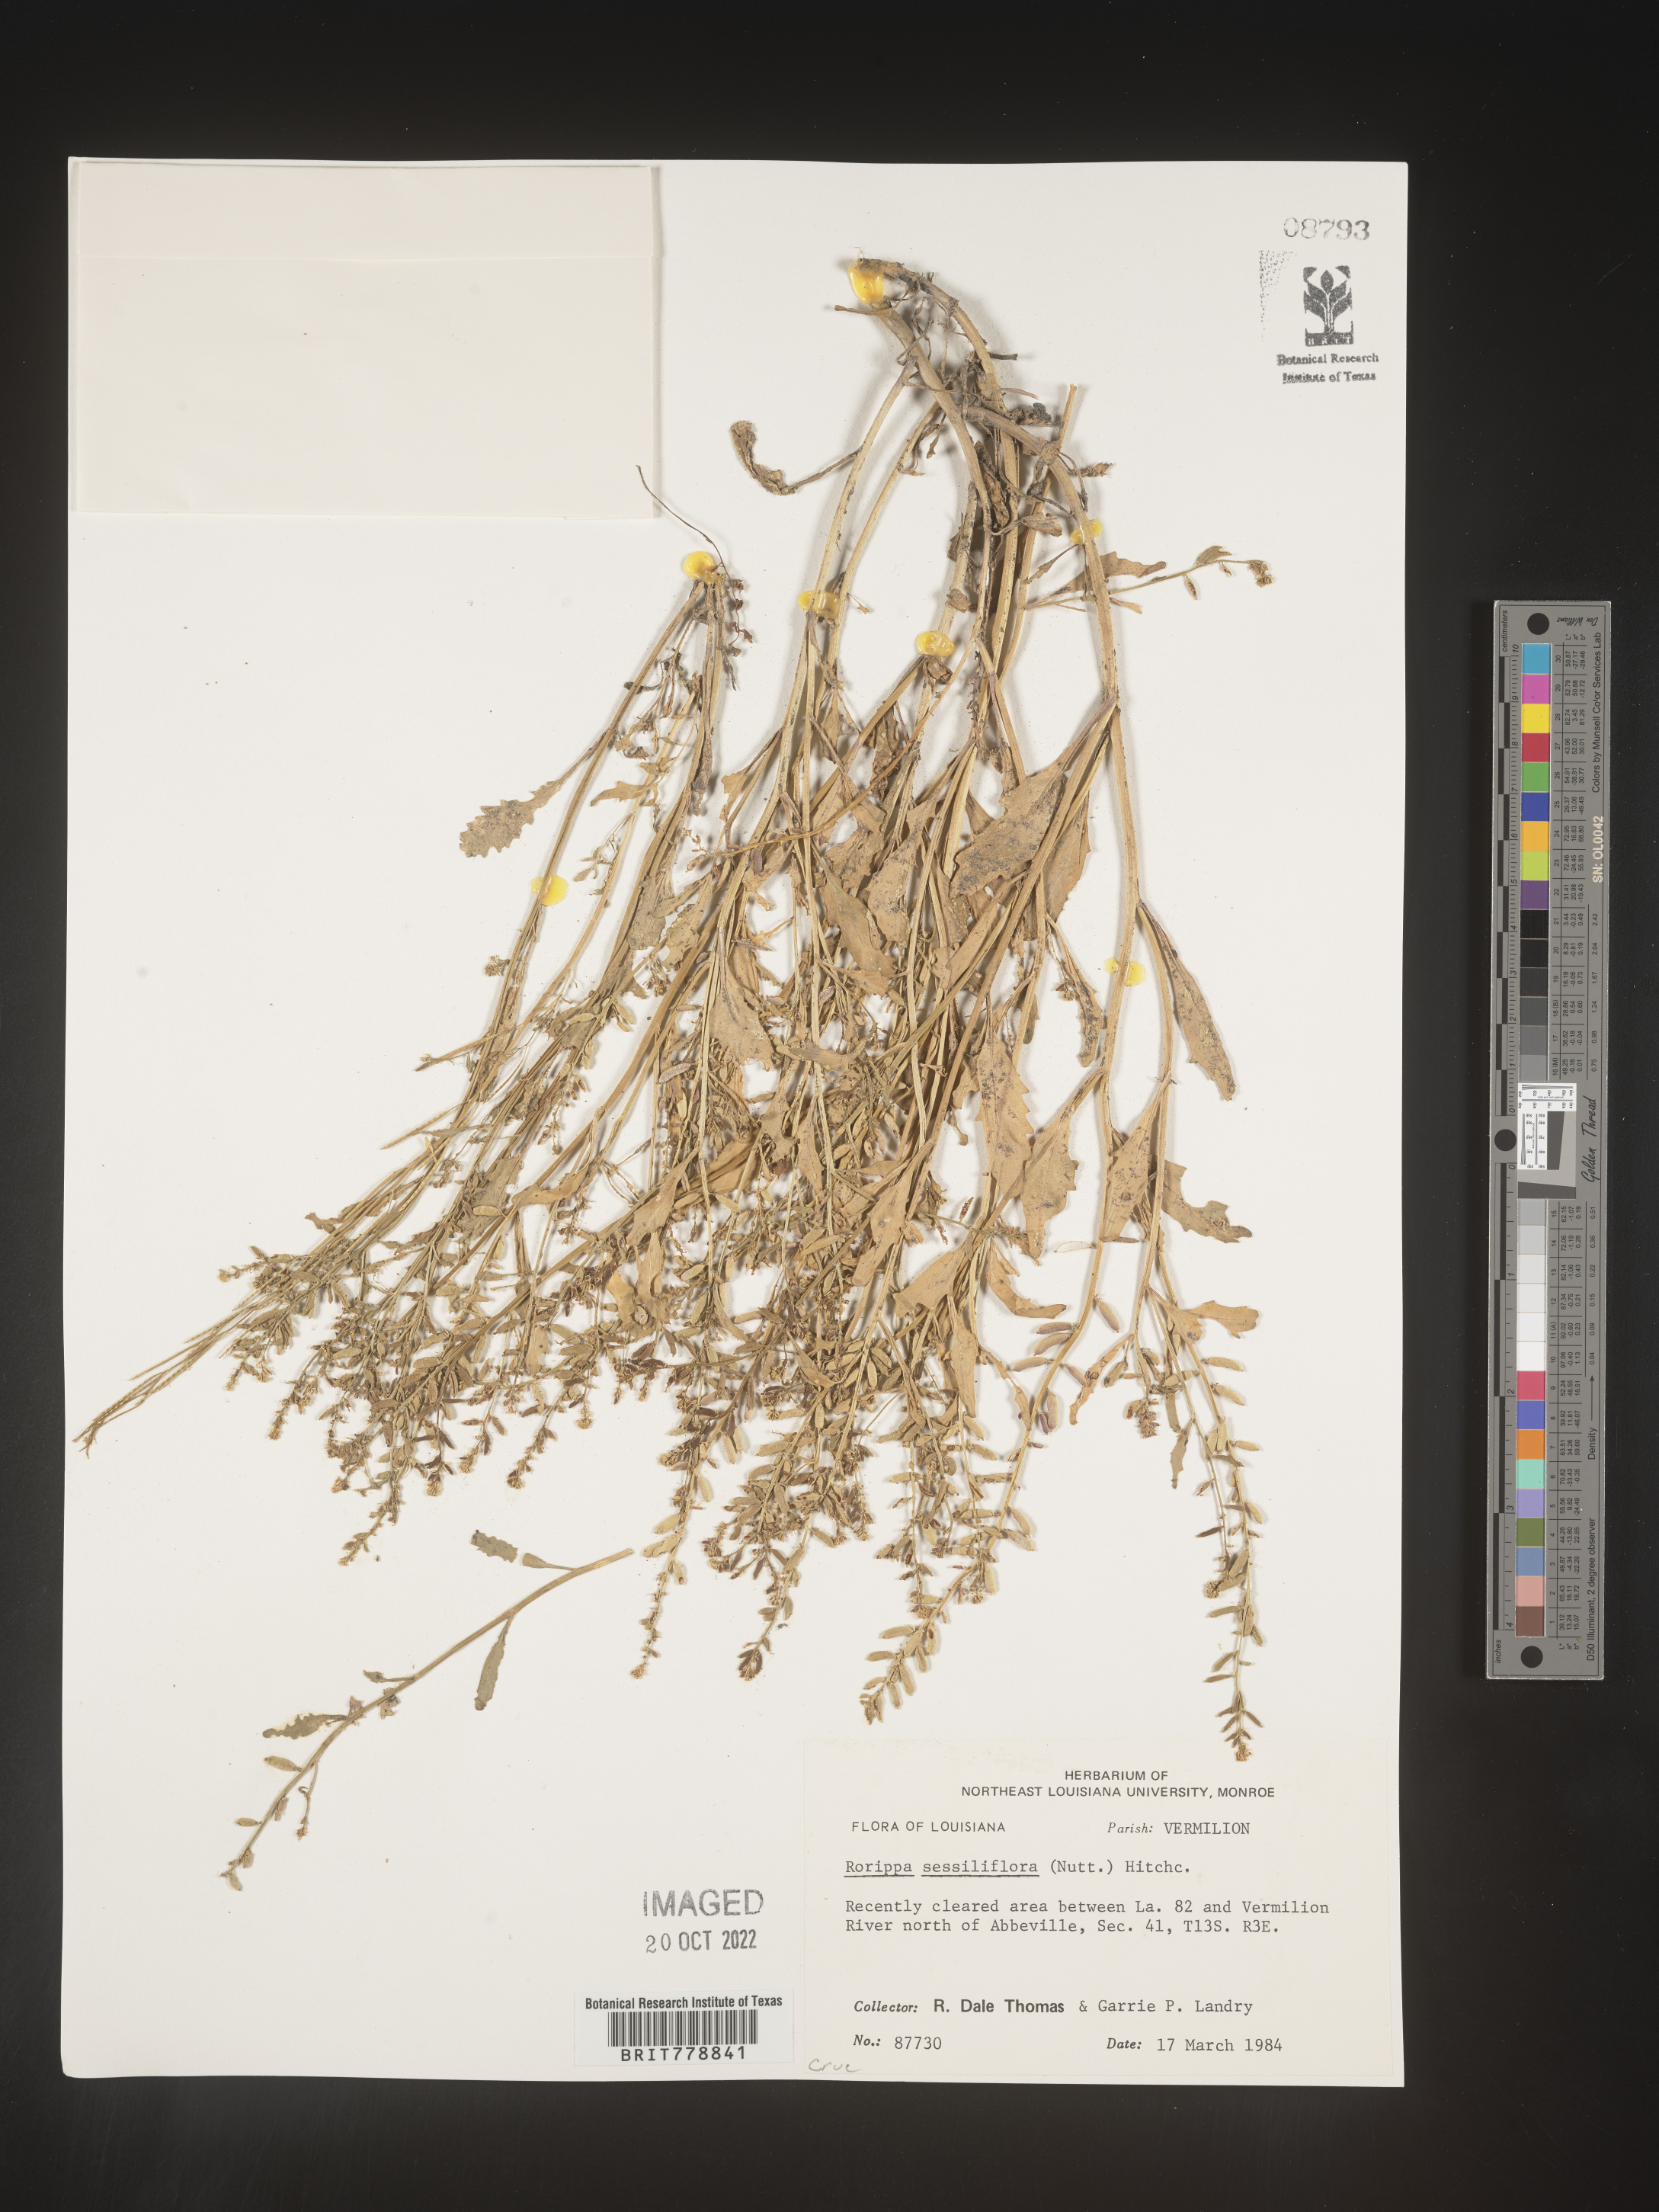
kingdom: Plantae
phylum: Tracheophyta
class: Magnoliopsida
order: Brassicales
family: Brassicaceae
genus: Rorippa
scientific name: Rorippa sessiliflora
